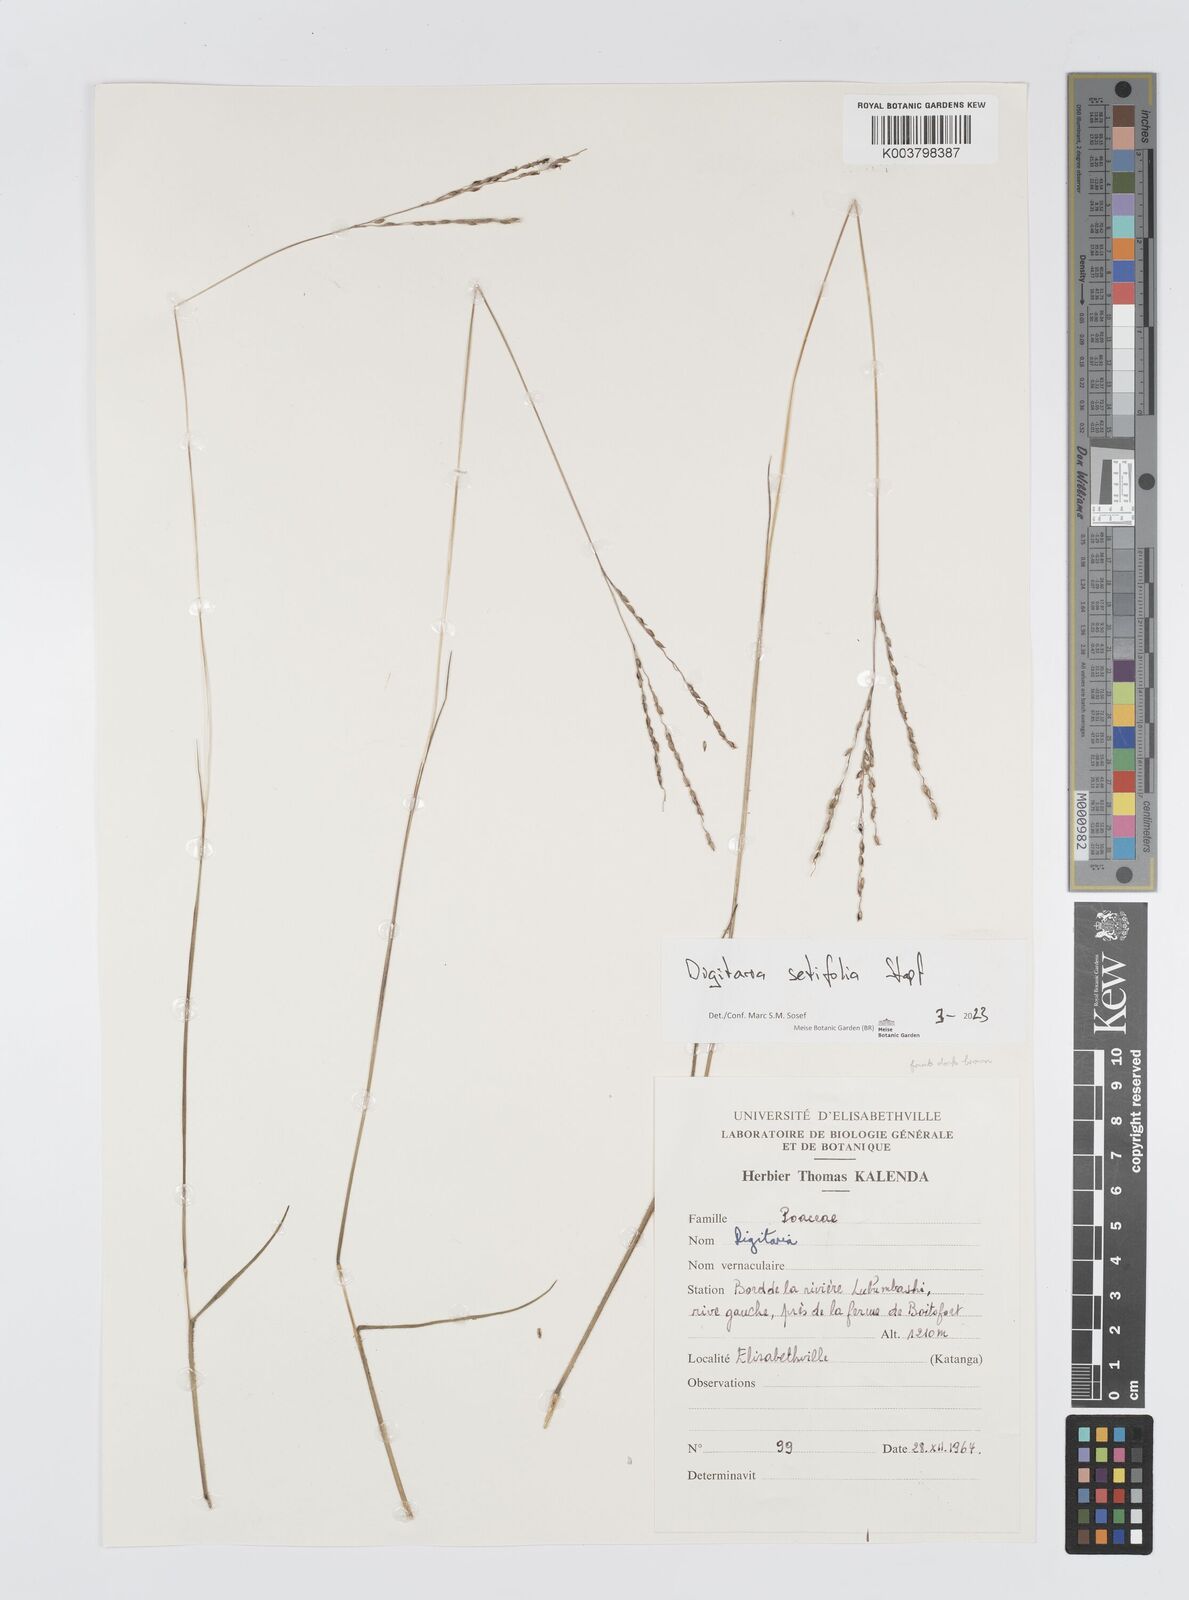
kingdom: Plantae
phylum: Tracheophyta
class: Liliopsida
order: Poales
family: Poaceae
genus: Digitaria
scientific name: Digitaria setifolia
